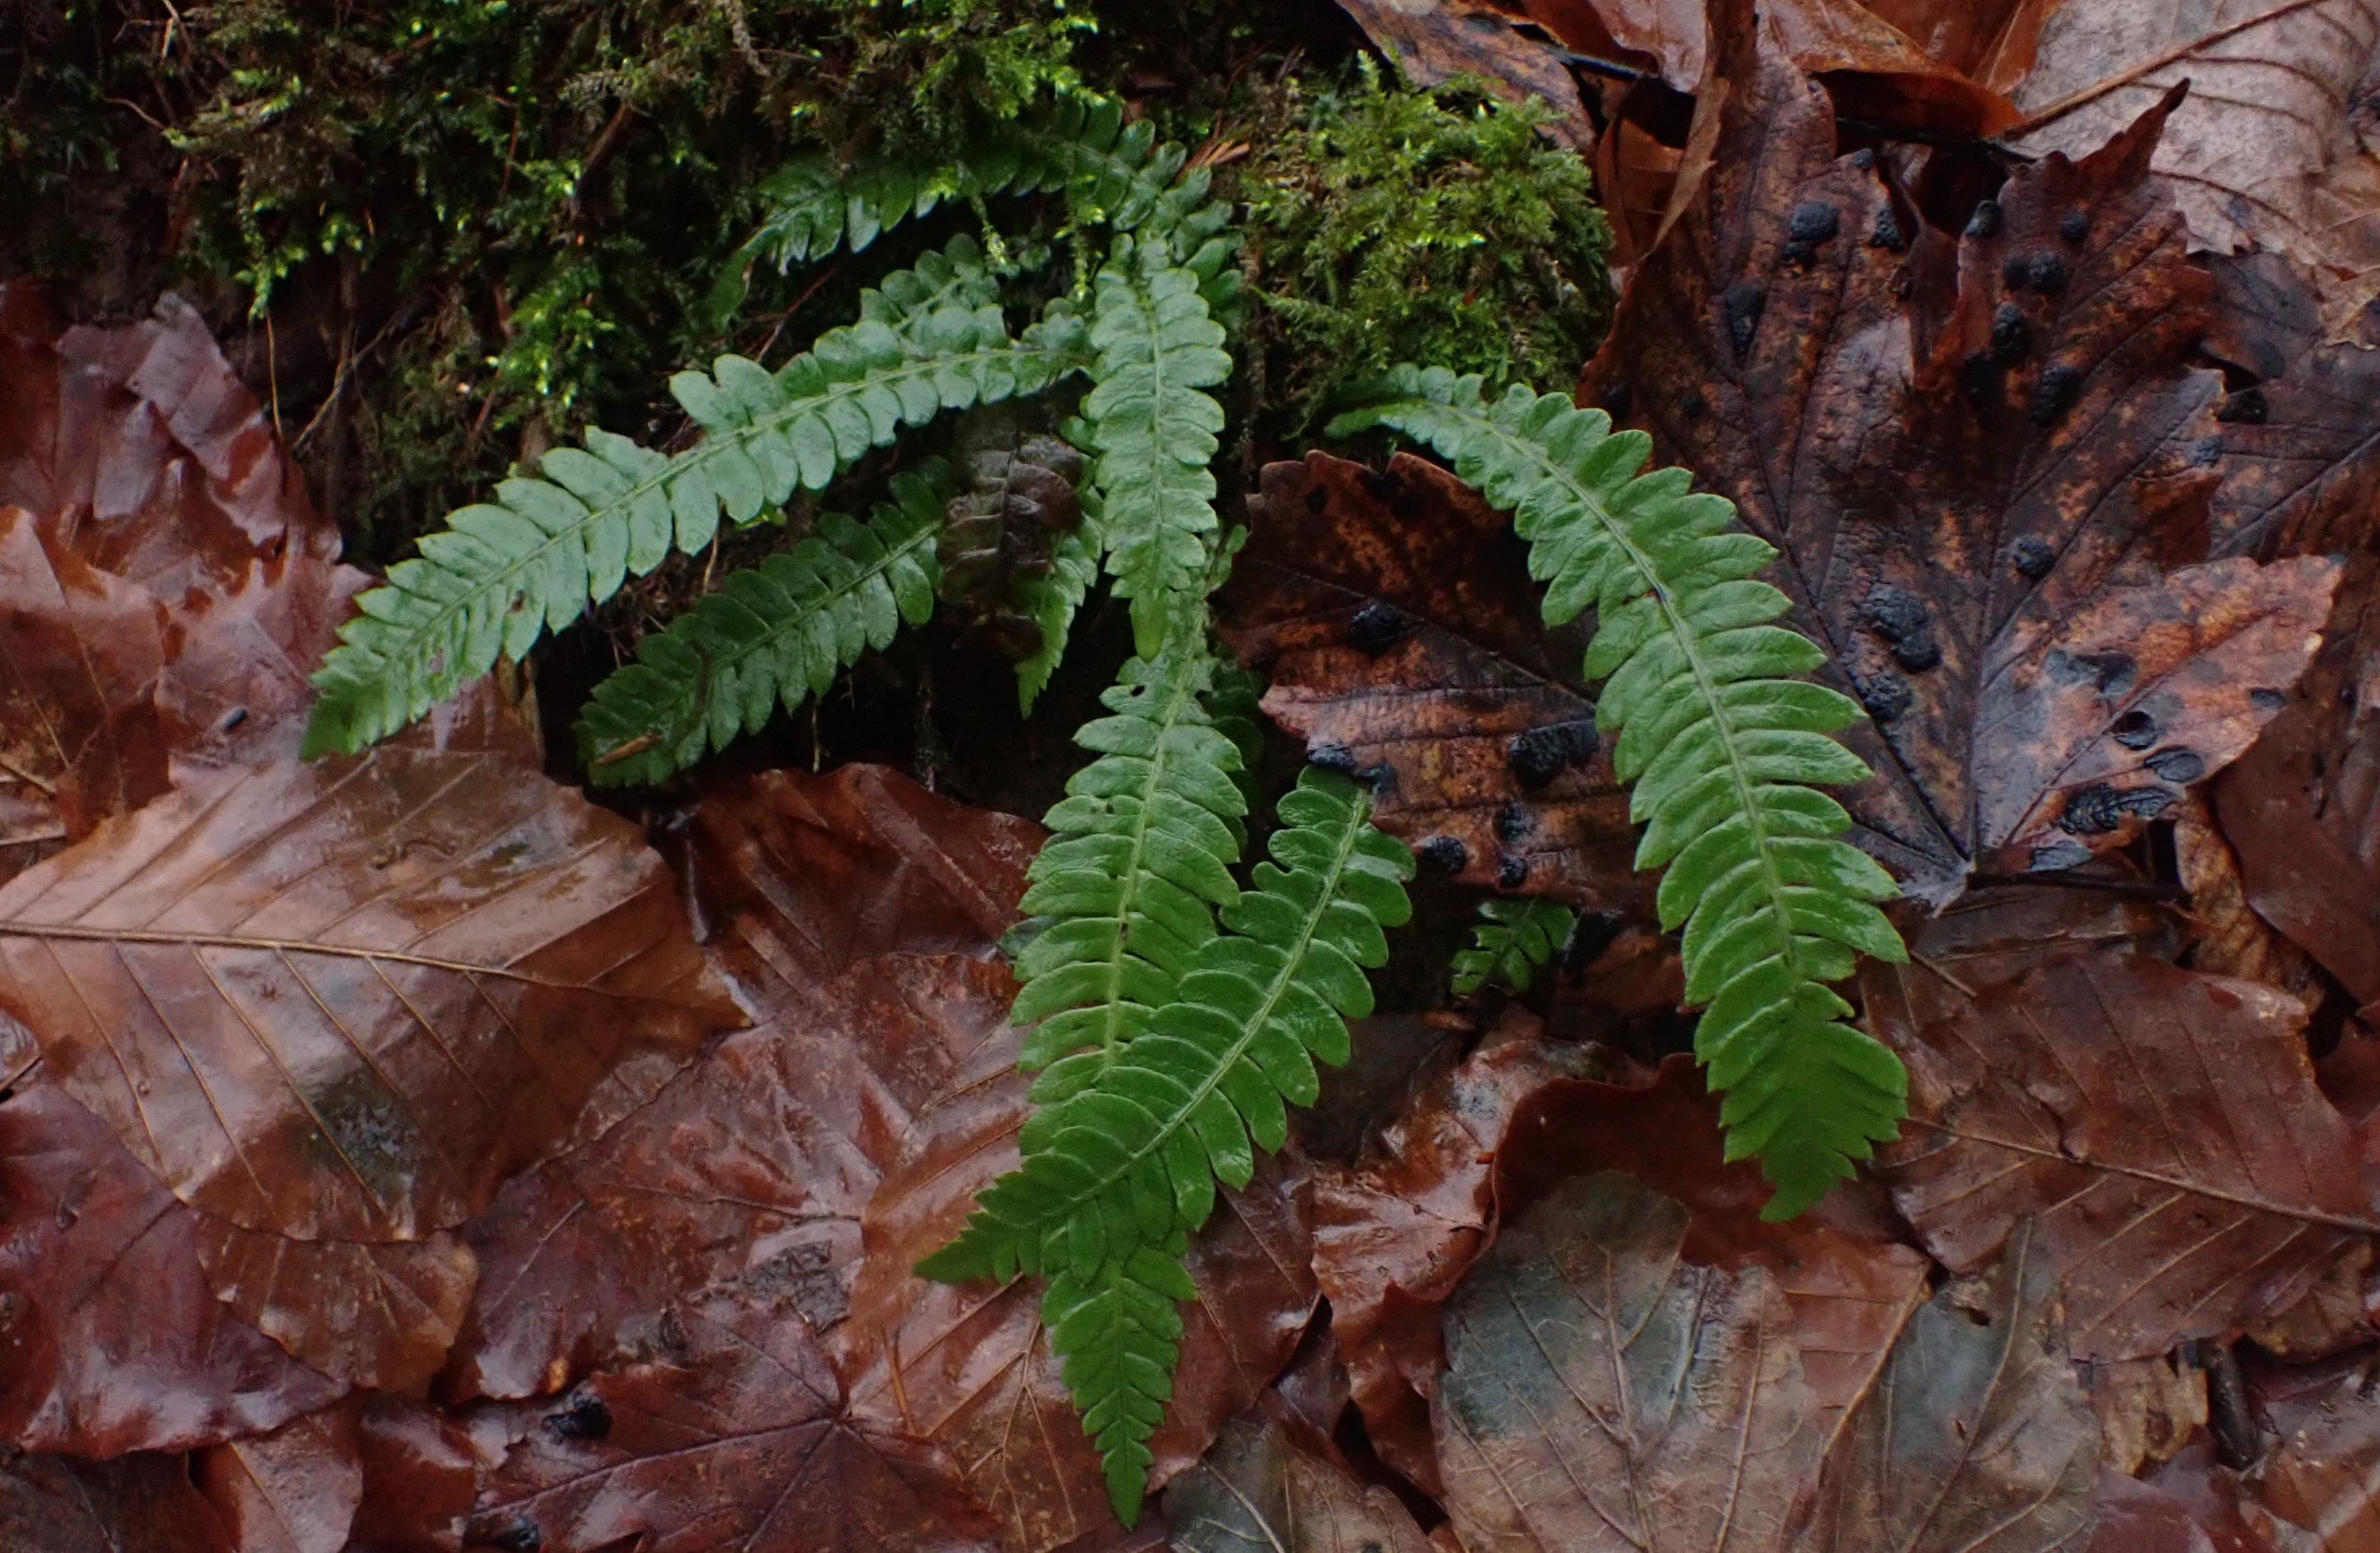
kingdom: Plantae
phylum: Tracheophyta
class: Polypodiopsida
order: Polypodiales
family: Blechnaceae
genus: Struthiopteris
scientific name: Struthiopteris spicant
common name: Kambregne
